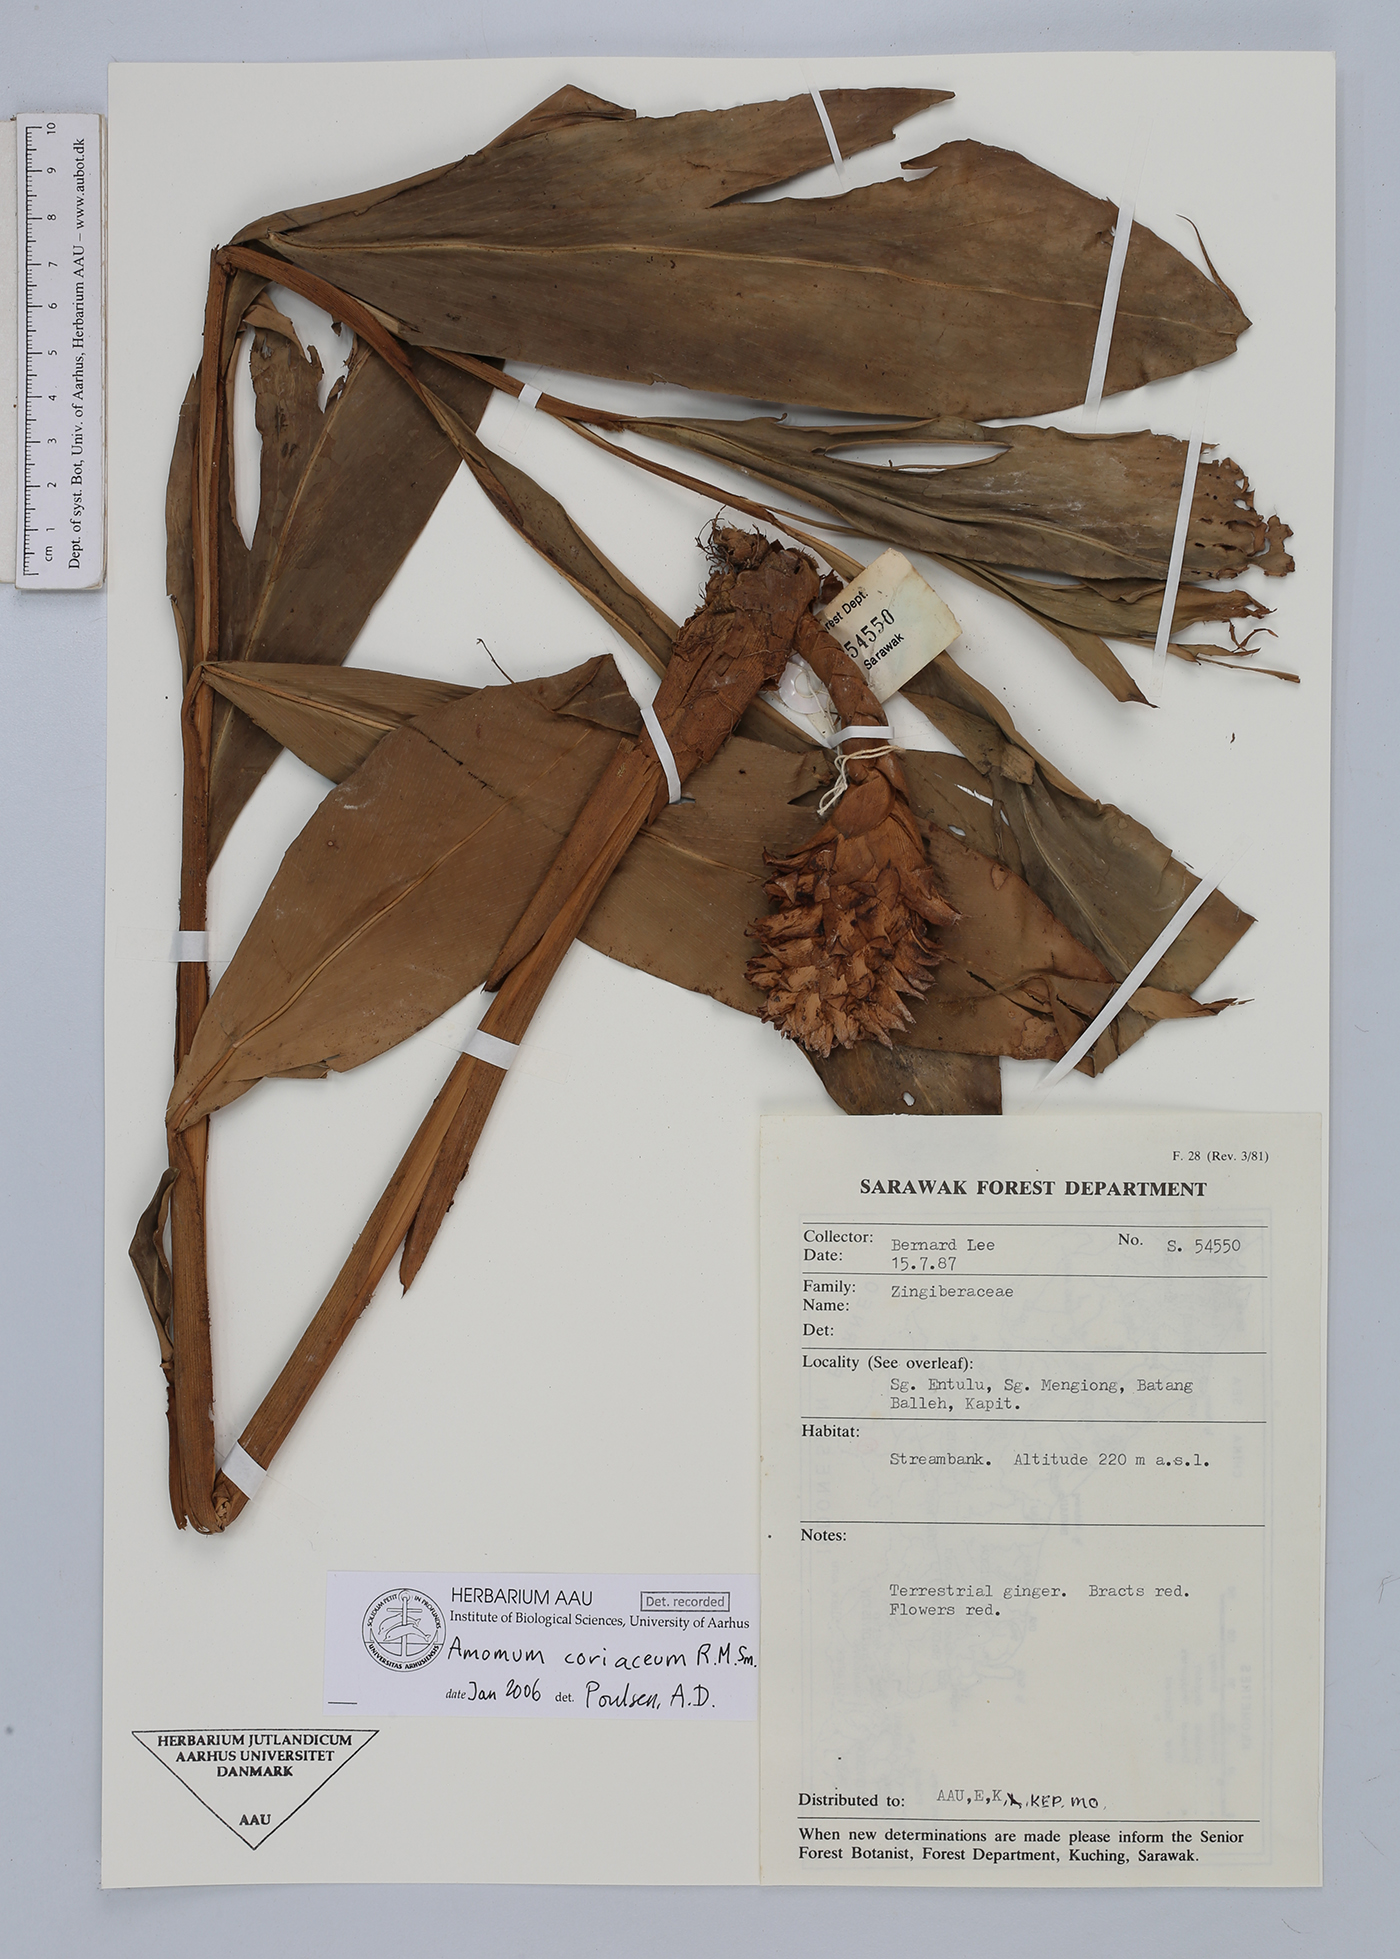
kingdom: Plantae
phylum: Tracheophyta
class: Liliopsida
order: Zingiberales
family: Zingiberaceae
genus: Conamomum
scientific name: Conamomum cylindrostachys
